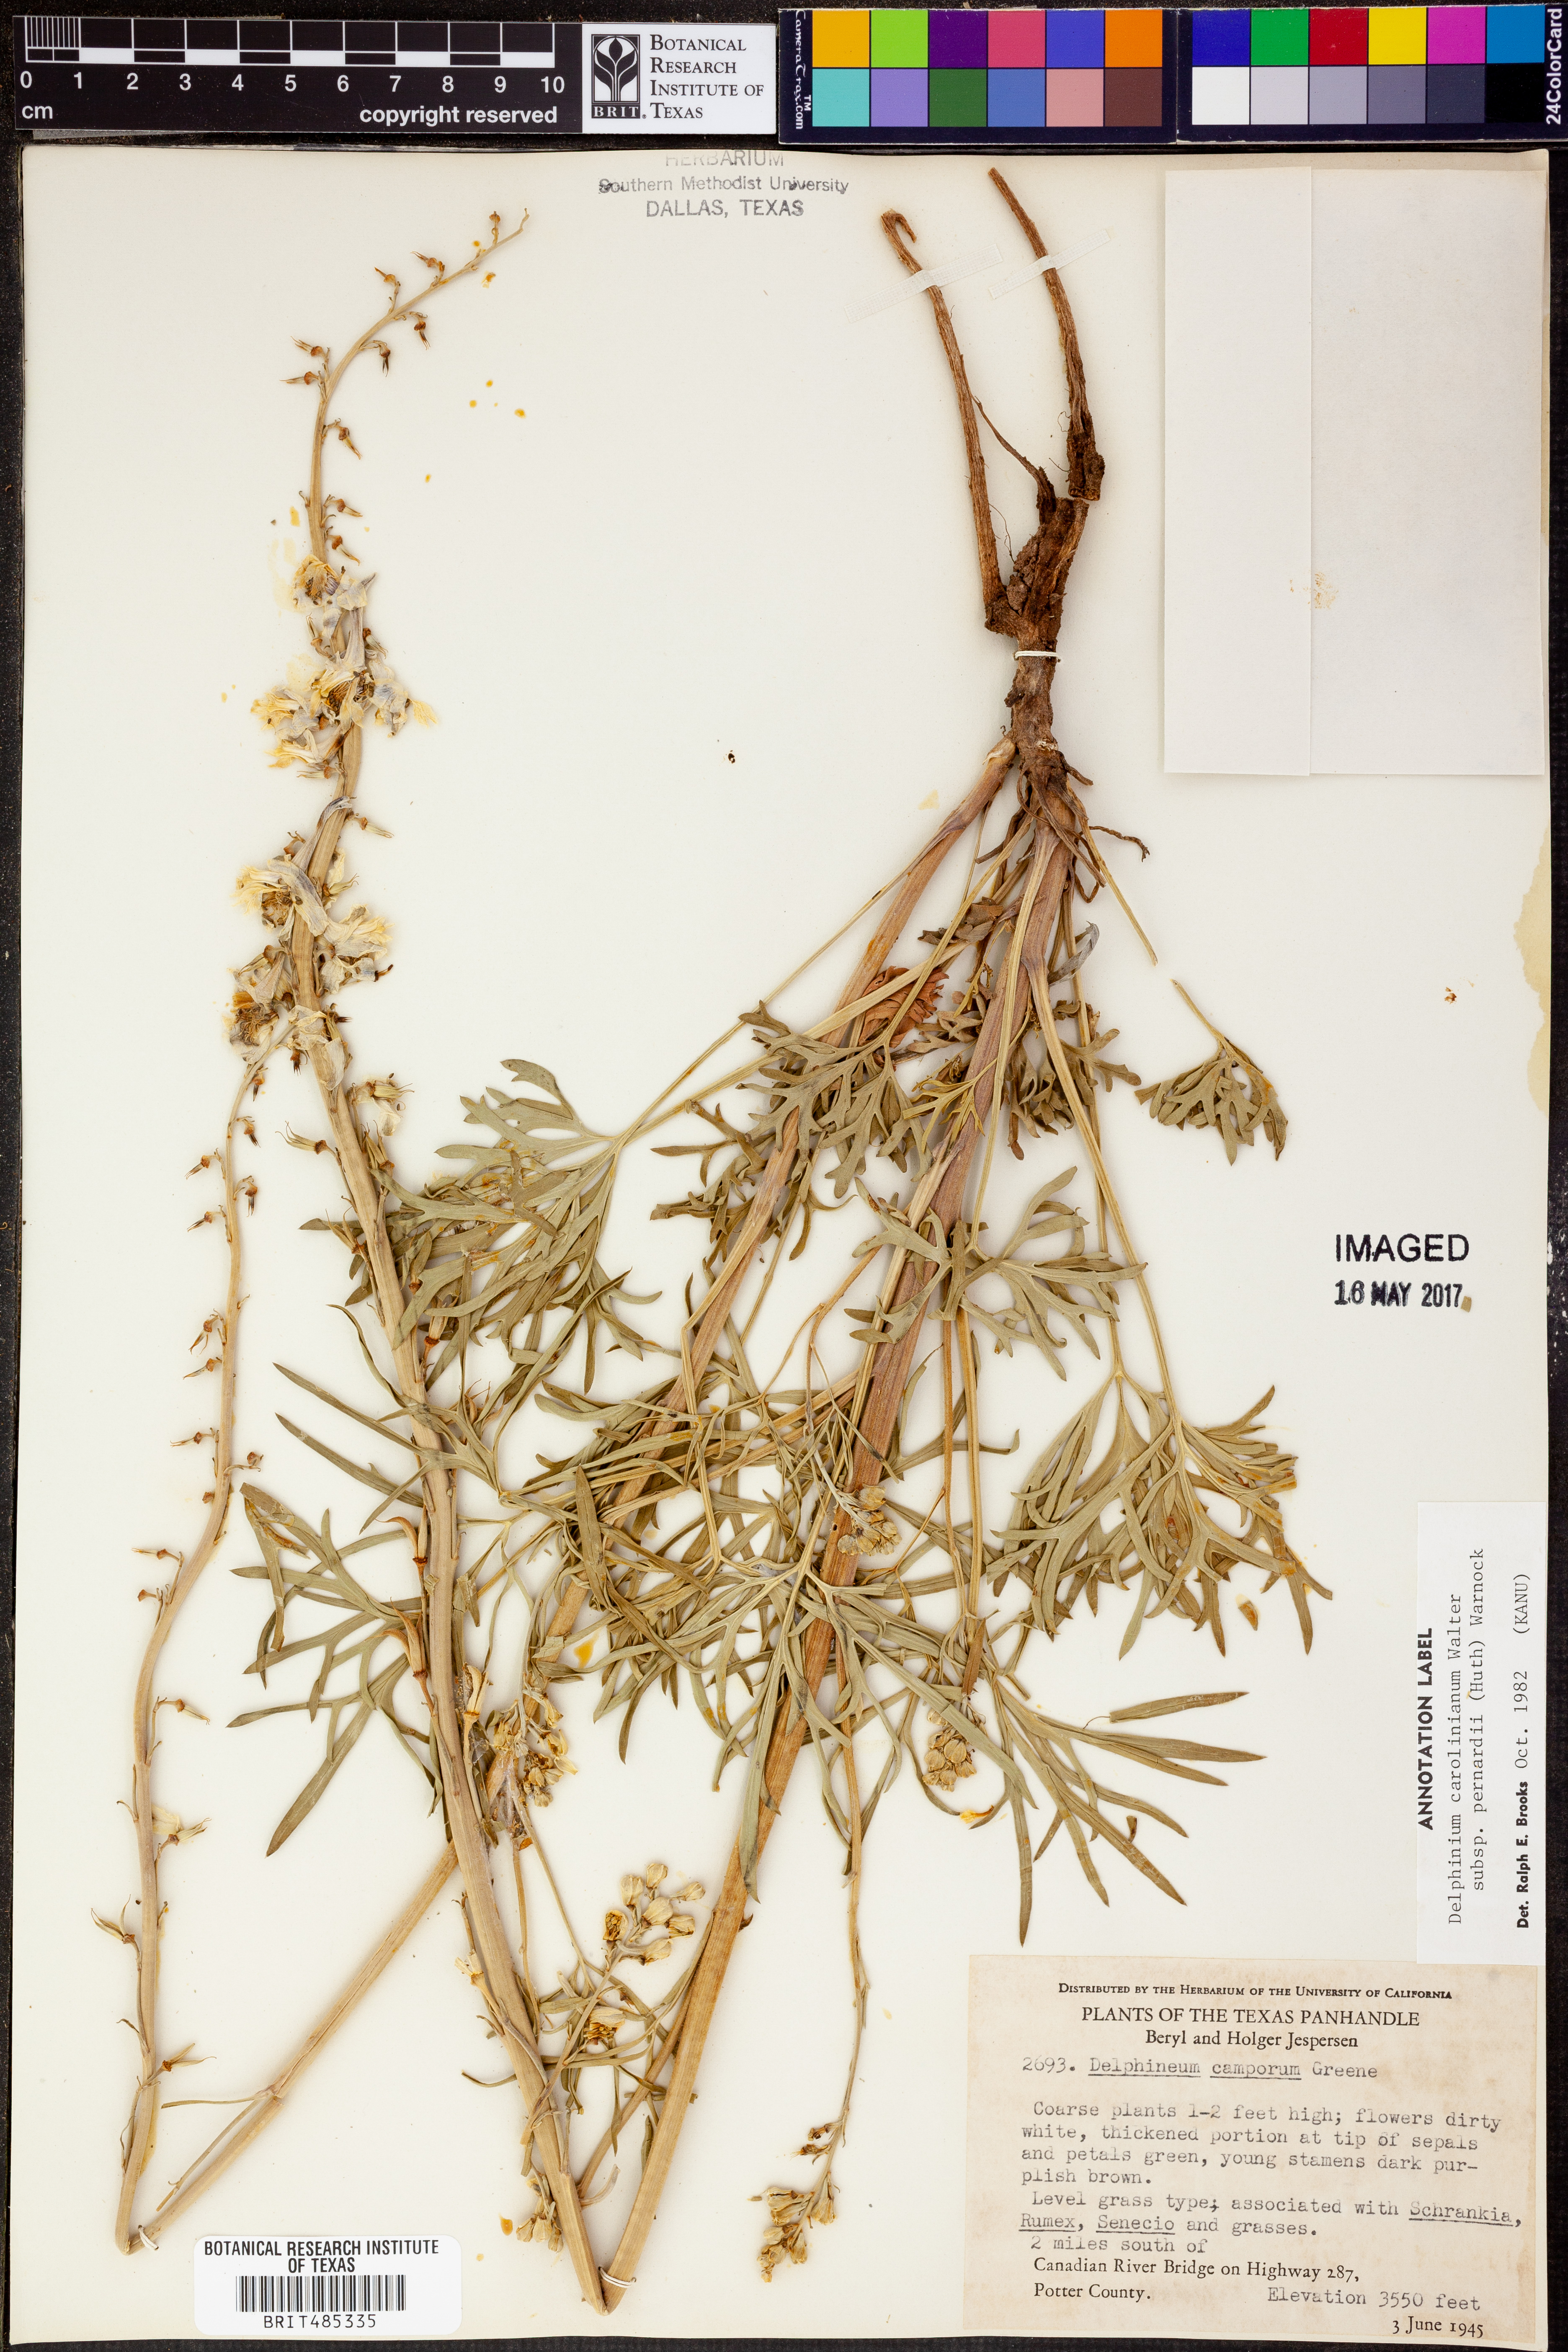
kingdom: Plantae
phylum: Tracheophyta
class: Magnoliopsida
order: Ranunculales
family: Ranunculaceae
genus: Delphinium
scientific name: Delphinium carolinianum
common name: Carolina larkspur
